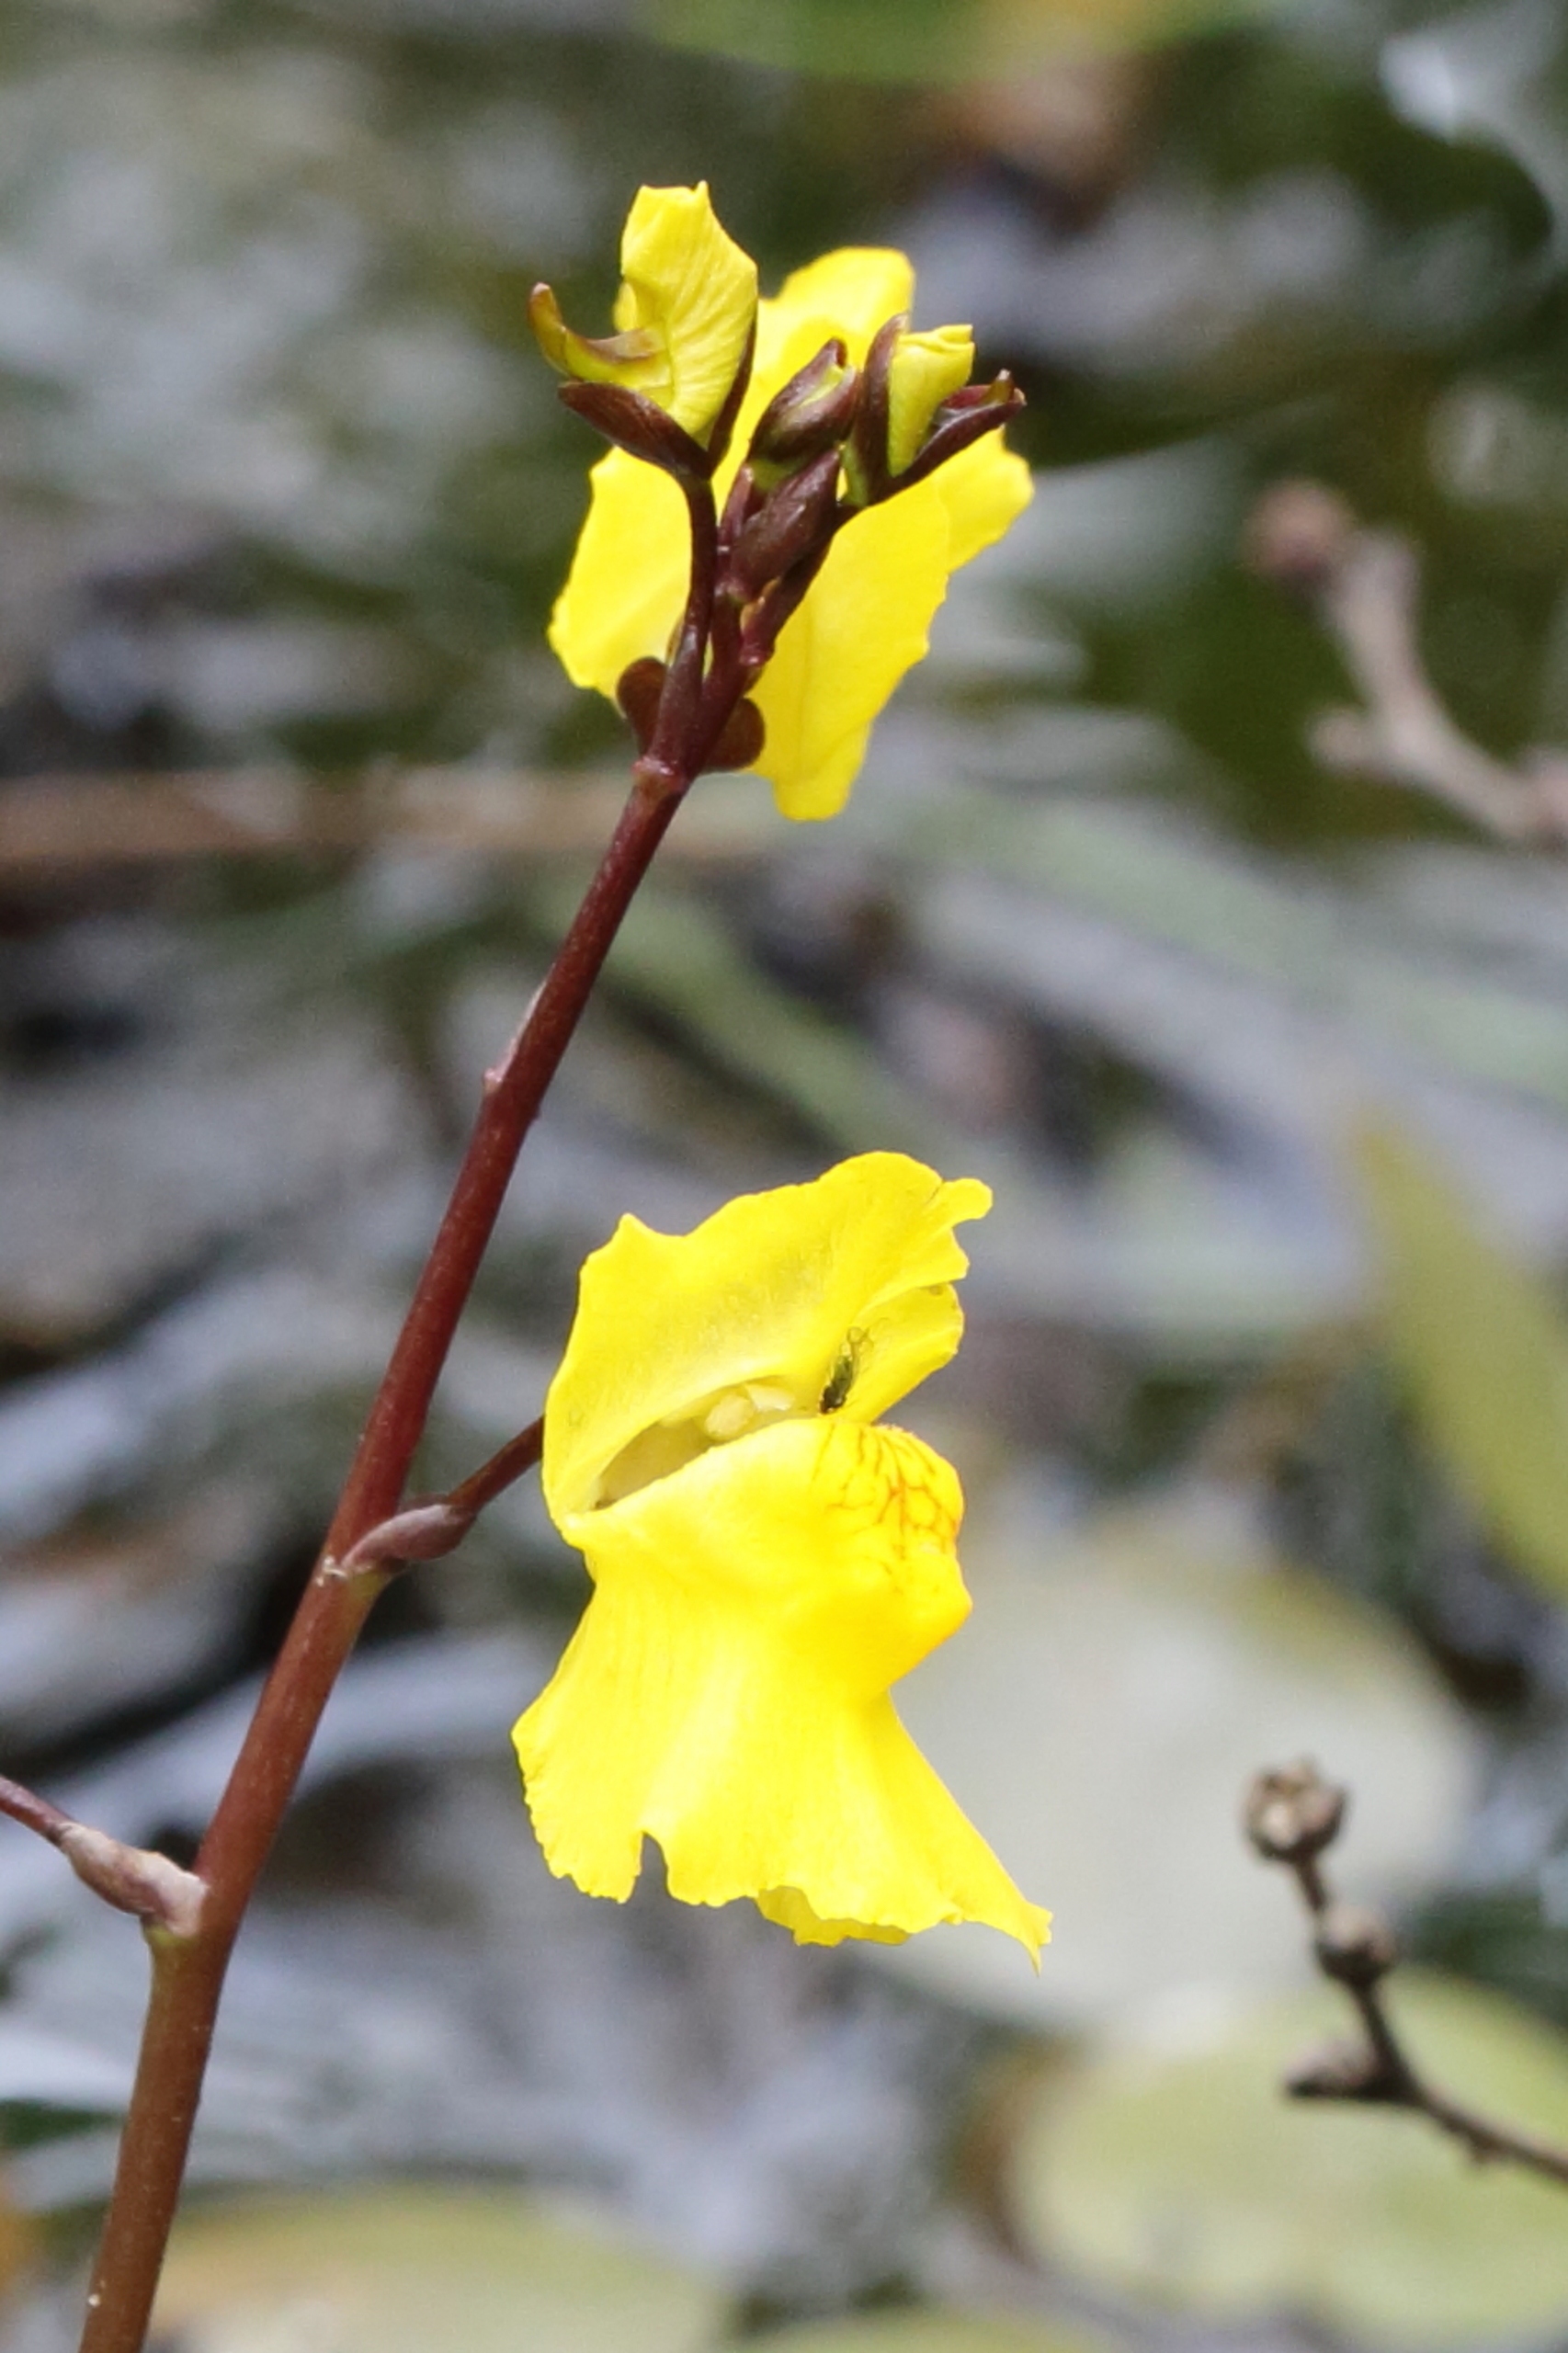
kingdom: Plantae
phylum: Tracheophyta
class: Magnoliopsida
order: Lamiales
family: Lentibulariaceae
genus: Utricularia
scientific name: Utricularia vulgaris
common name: Almindelig blærerod
